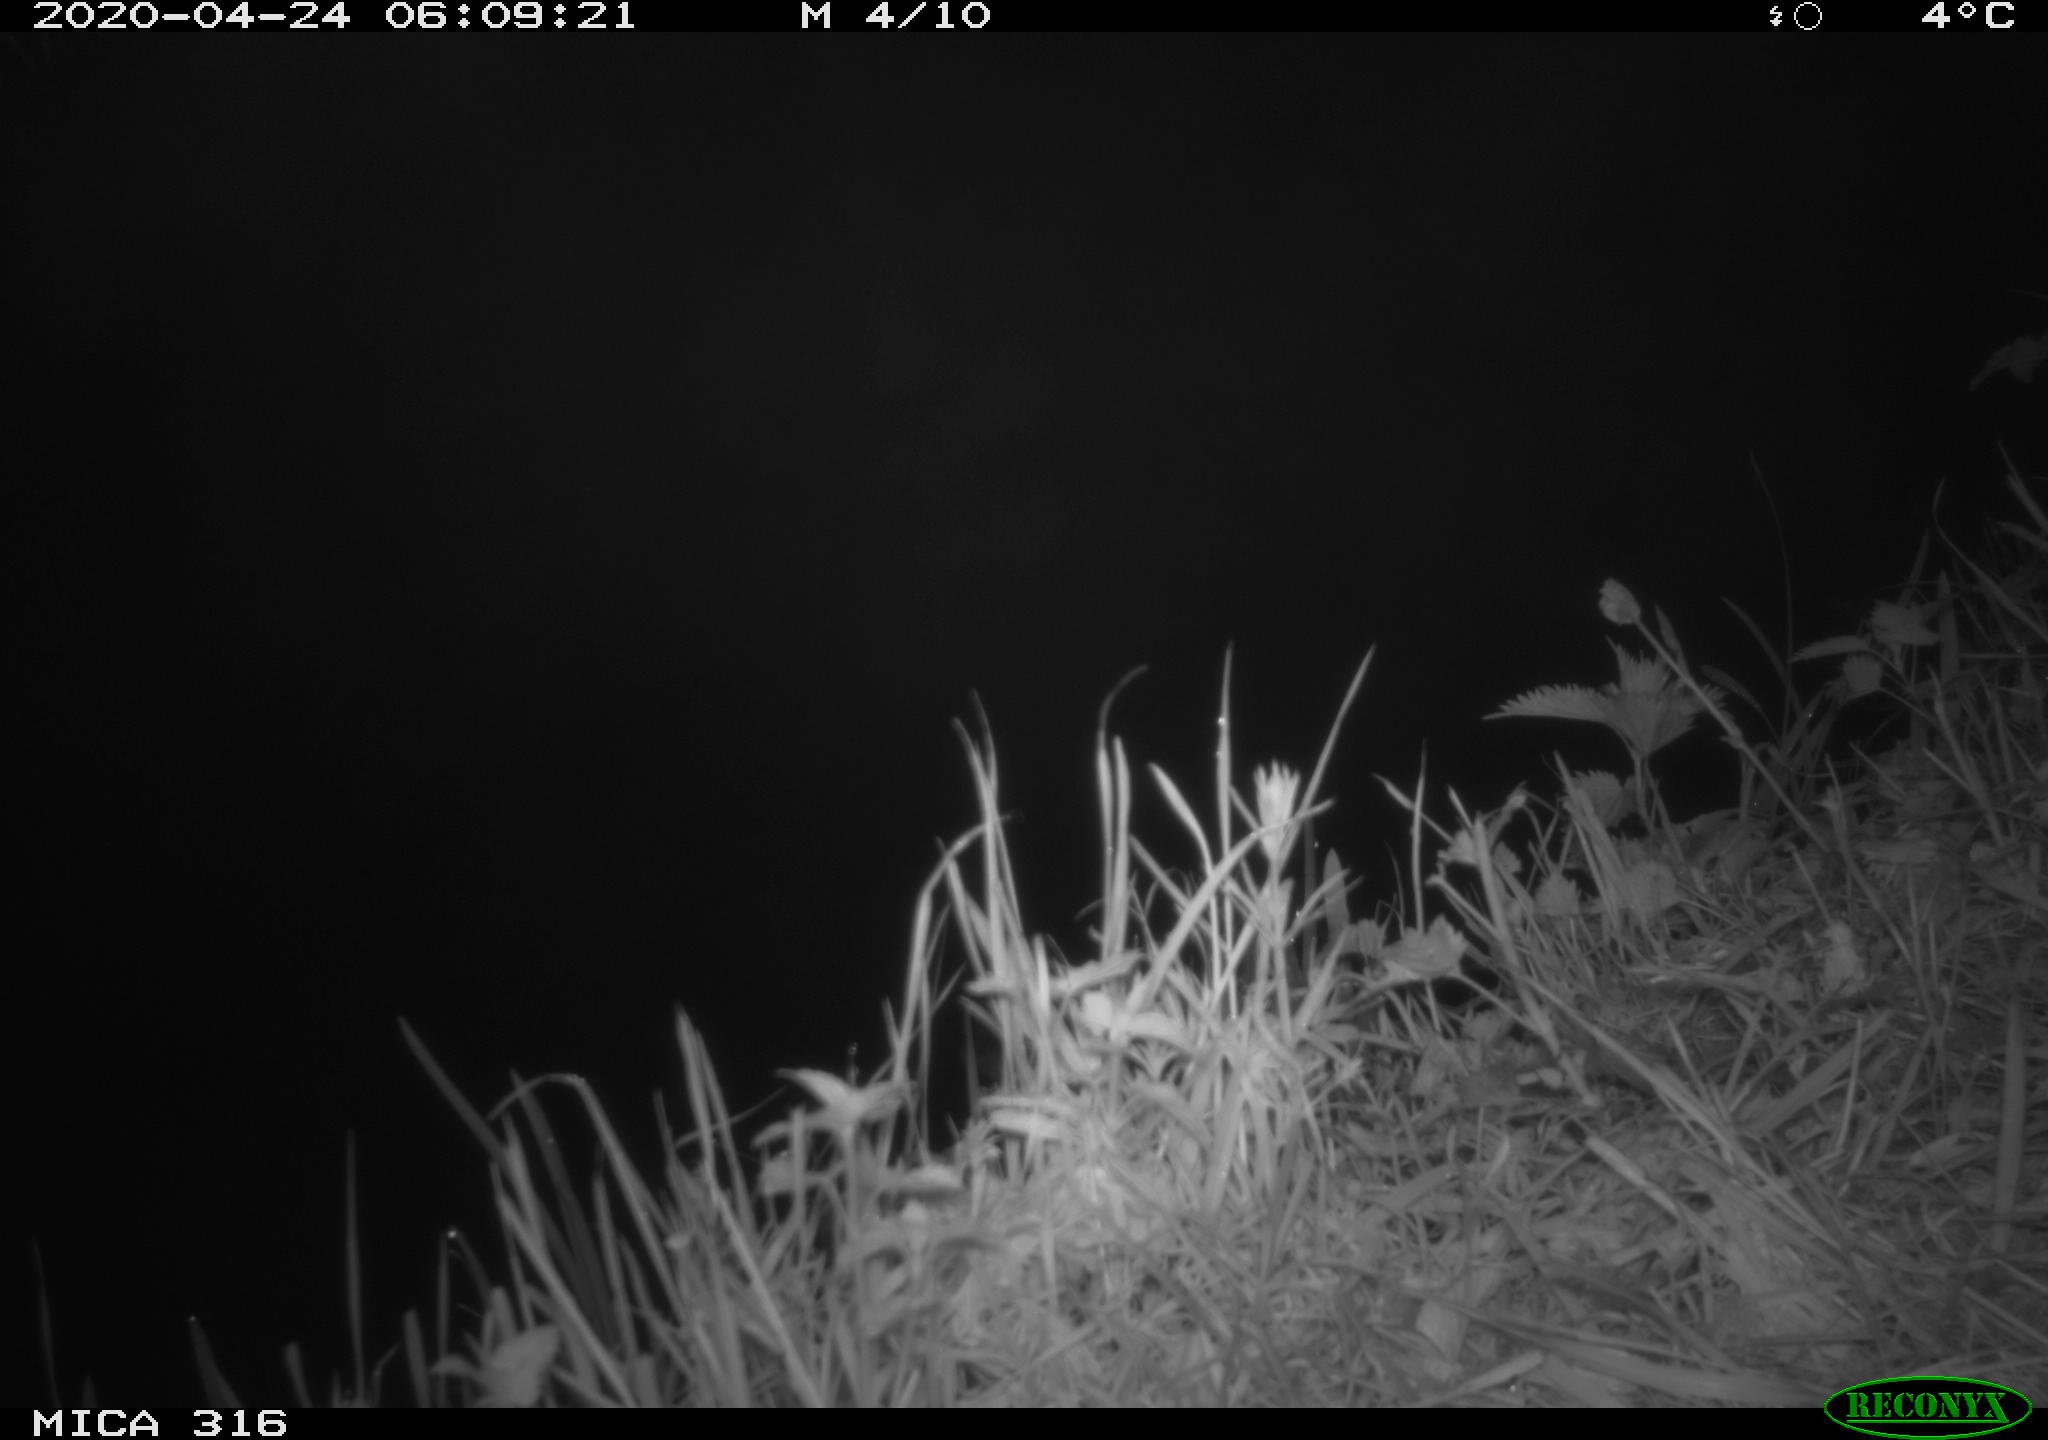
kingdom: Animalia
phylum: Chordata
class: Aves
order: Gruiformes
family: Rallidae
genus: Gallinula
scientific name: Gallinula chloropus
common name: Common moorhen
